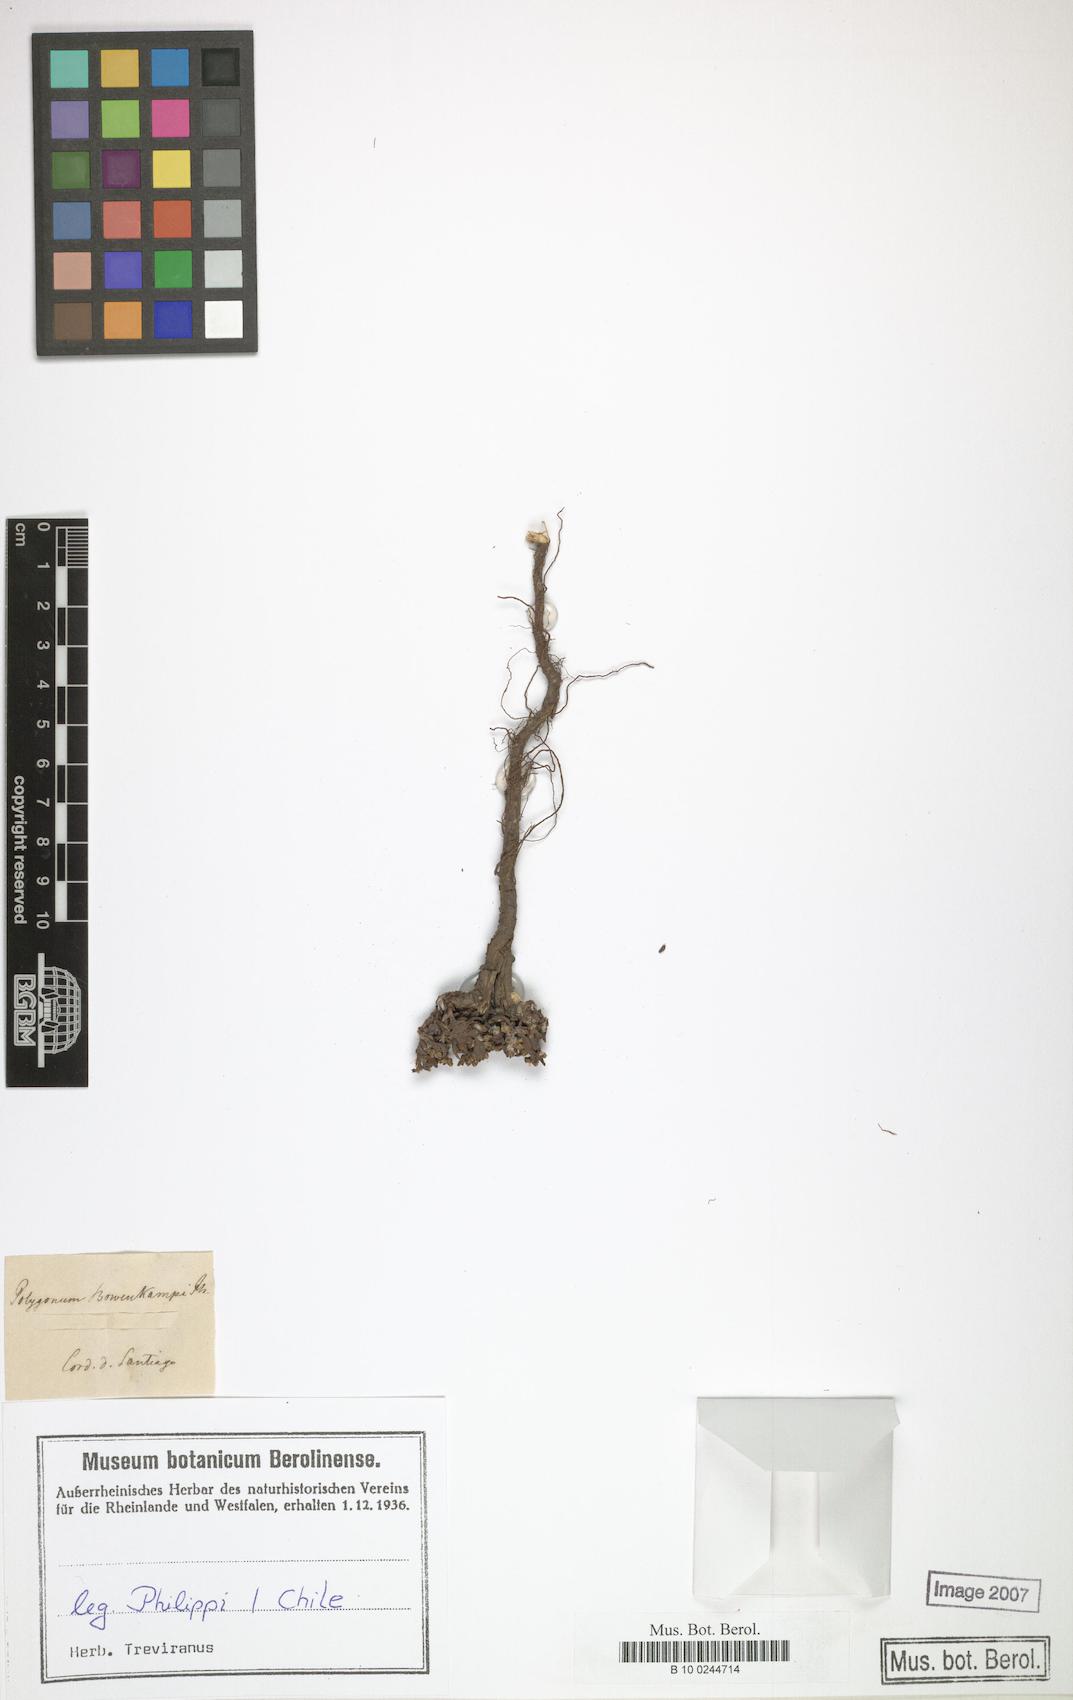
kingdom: Plantae
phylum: Tracheophyta
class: Magnoliopsida
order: Caryophyllales
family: Polygonaceae
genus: Polygonum
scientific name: Polygonum bowenkampii
